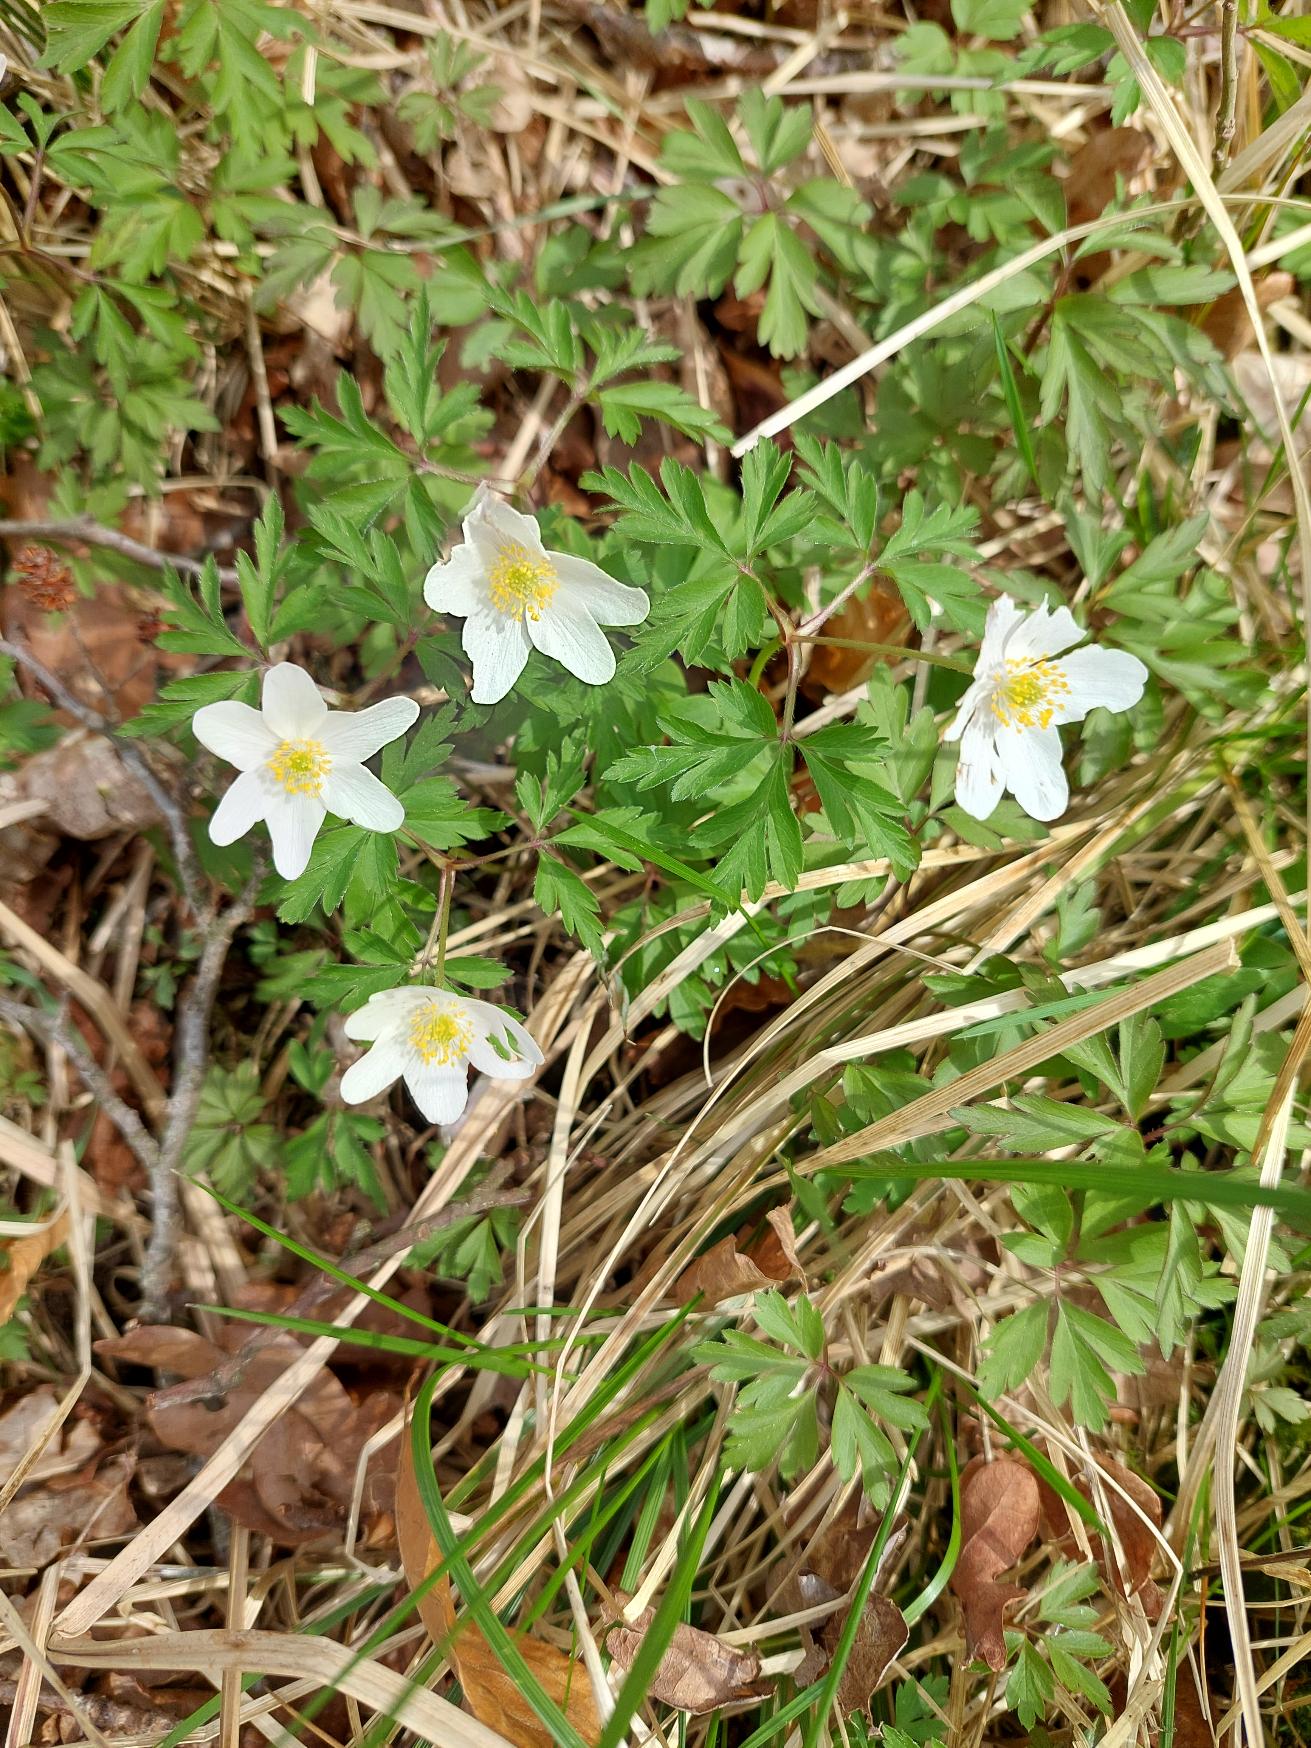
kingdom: Plantae
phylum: Tracheophyta
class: Magnoliopsida
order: Ranunculales
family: Ranunculaceae
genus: Anemone
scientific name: Anemone nemorosa
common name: Hvid anemone
